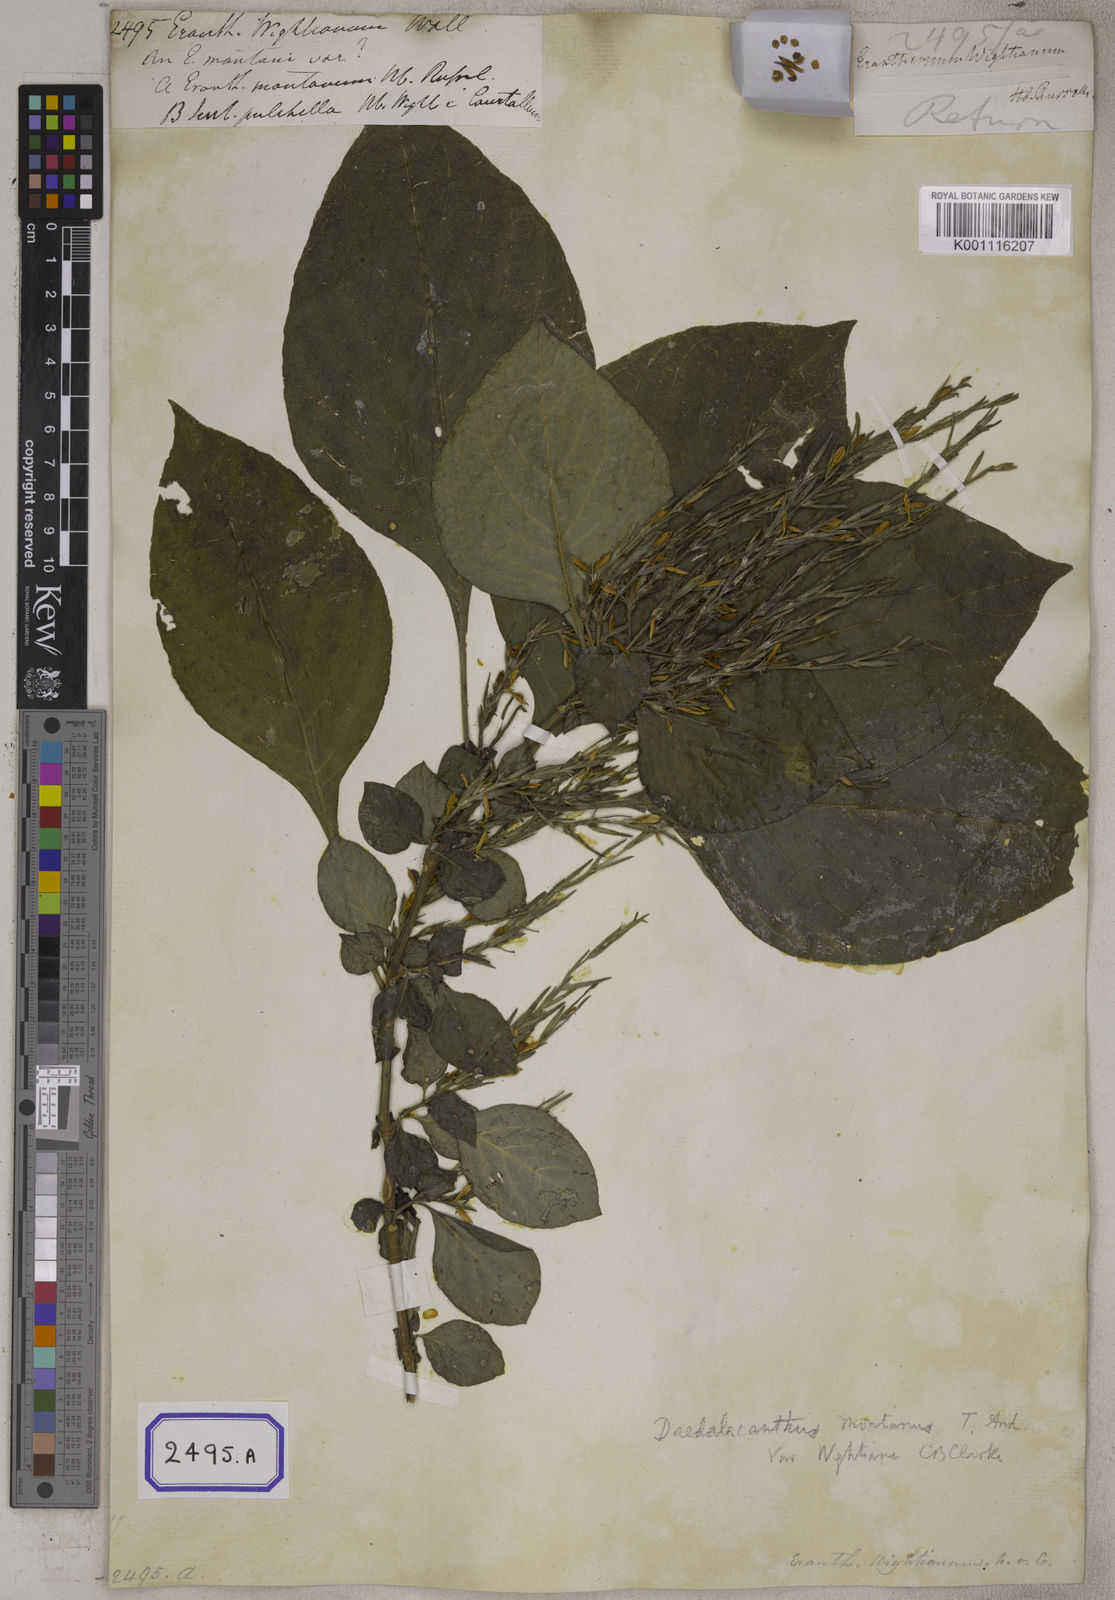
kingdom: Plantae
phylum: Tracheophyta
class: Magnoliopsida
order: Lamiales
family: Acanthaceae
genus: Eranthemum
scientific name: Eranthemum
